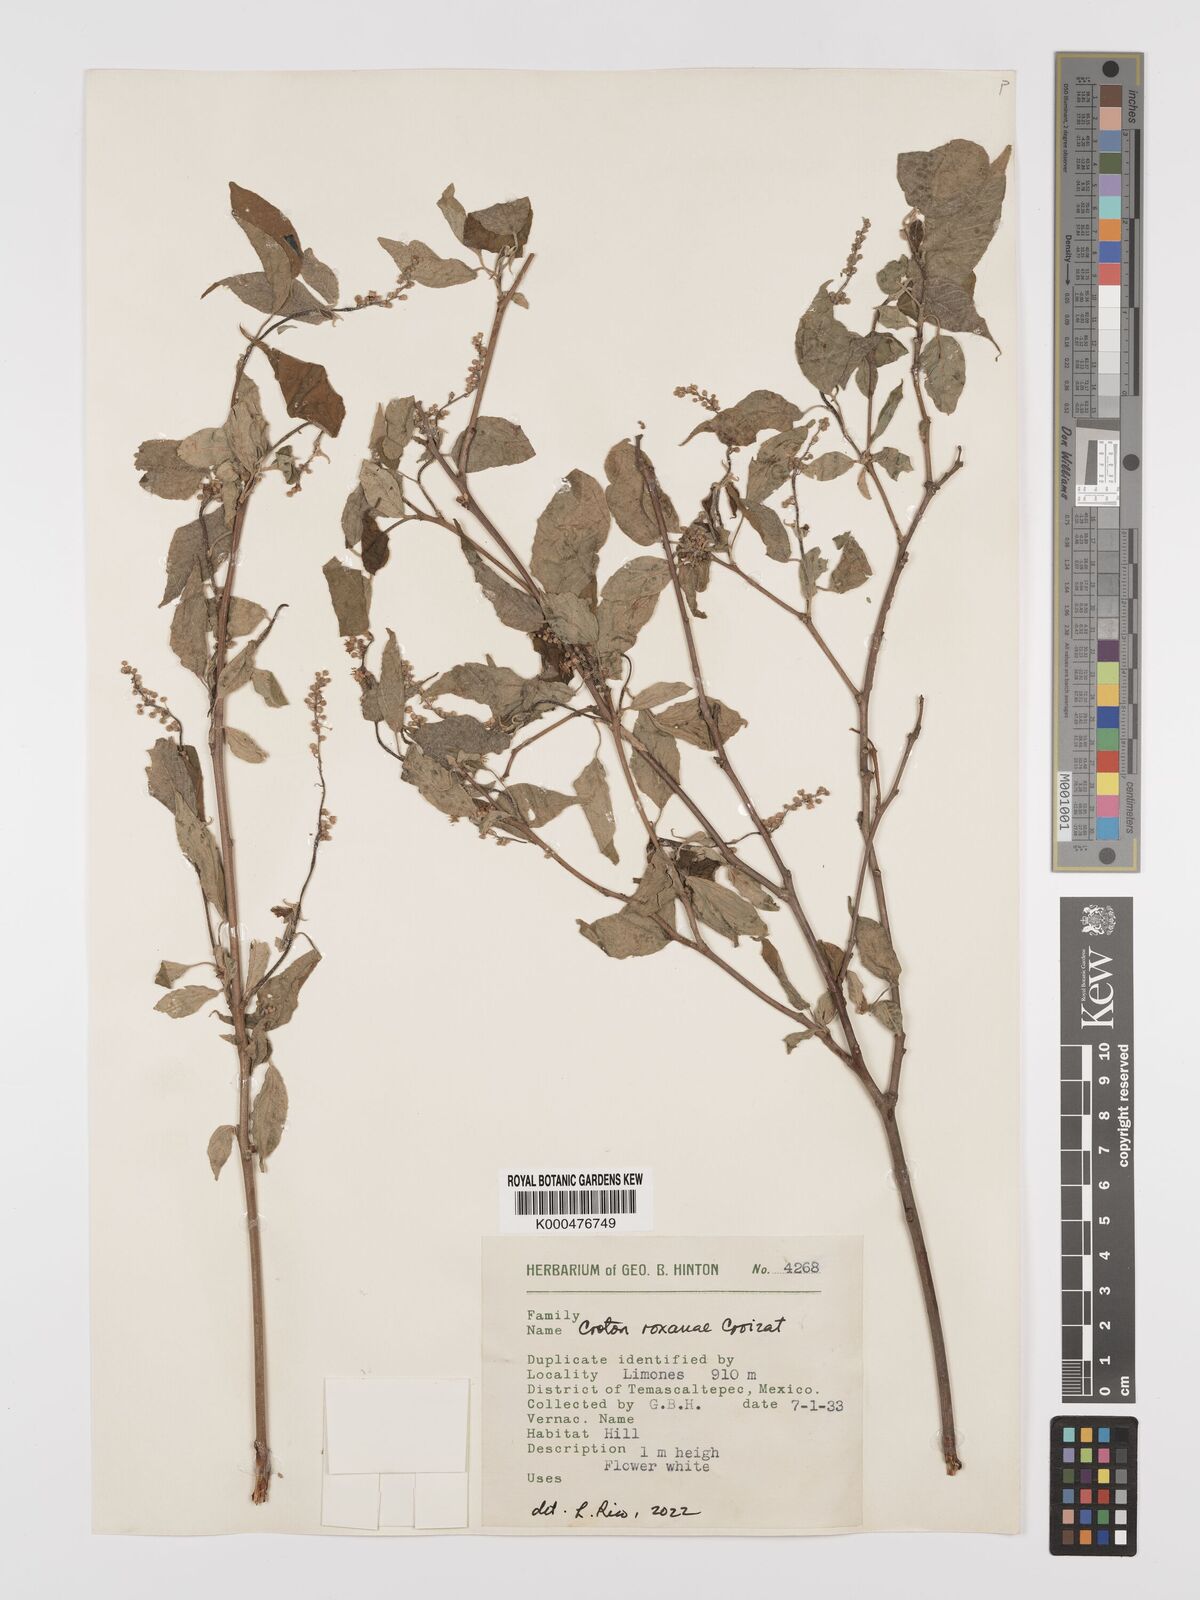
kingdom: Plantae
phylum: Tracheophyta
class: Magnoliopsida
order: Malpighiales
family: Euphorbiaceae
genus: Croton
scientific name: Croton
